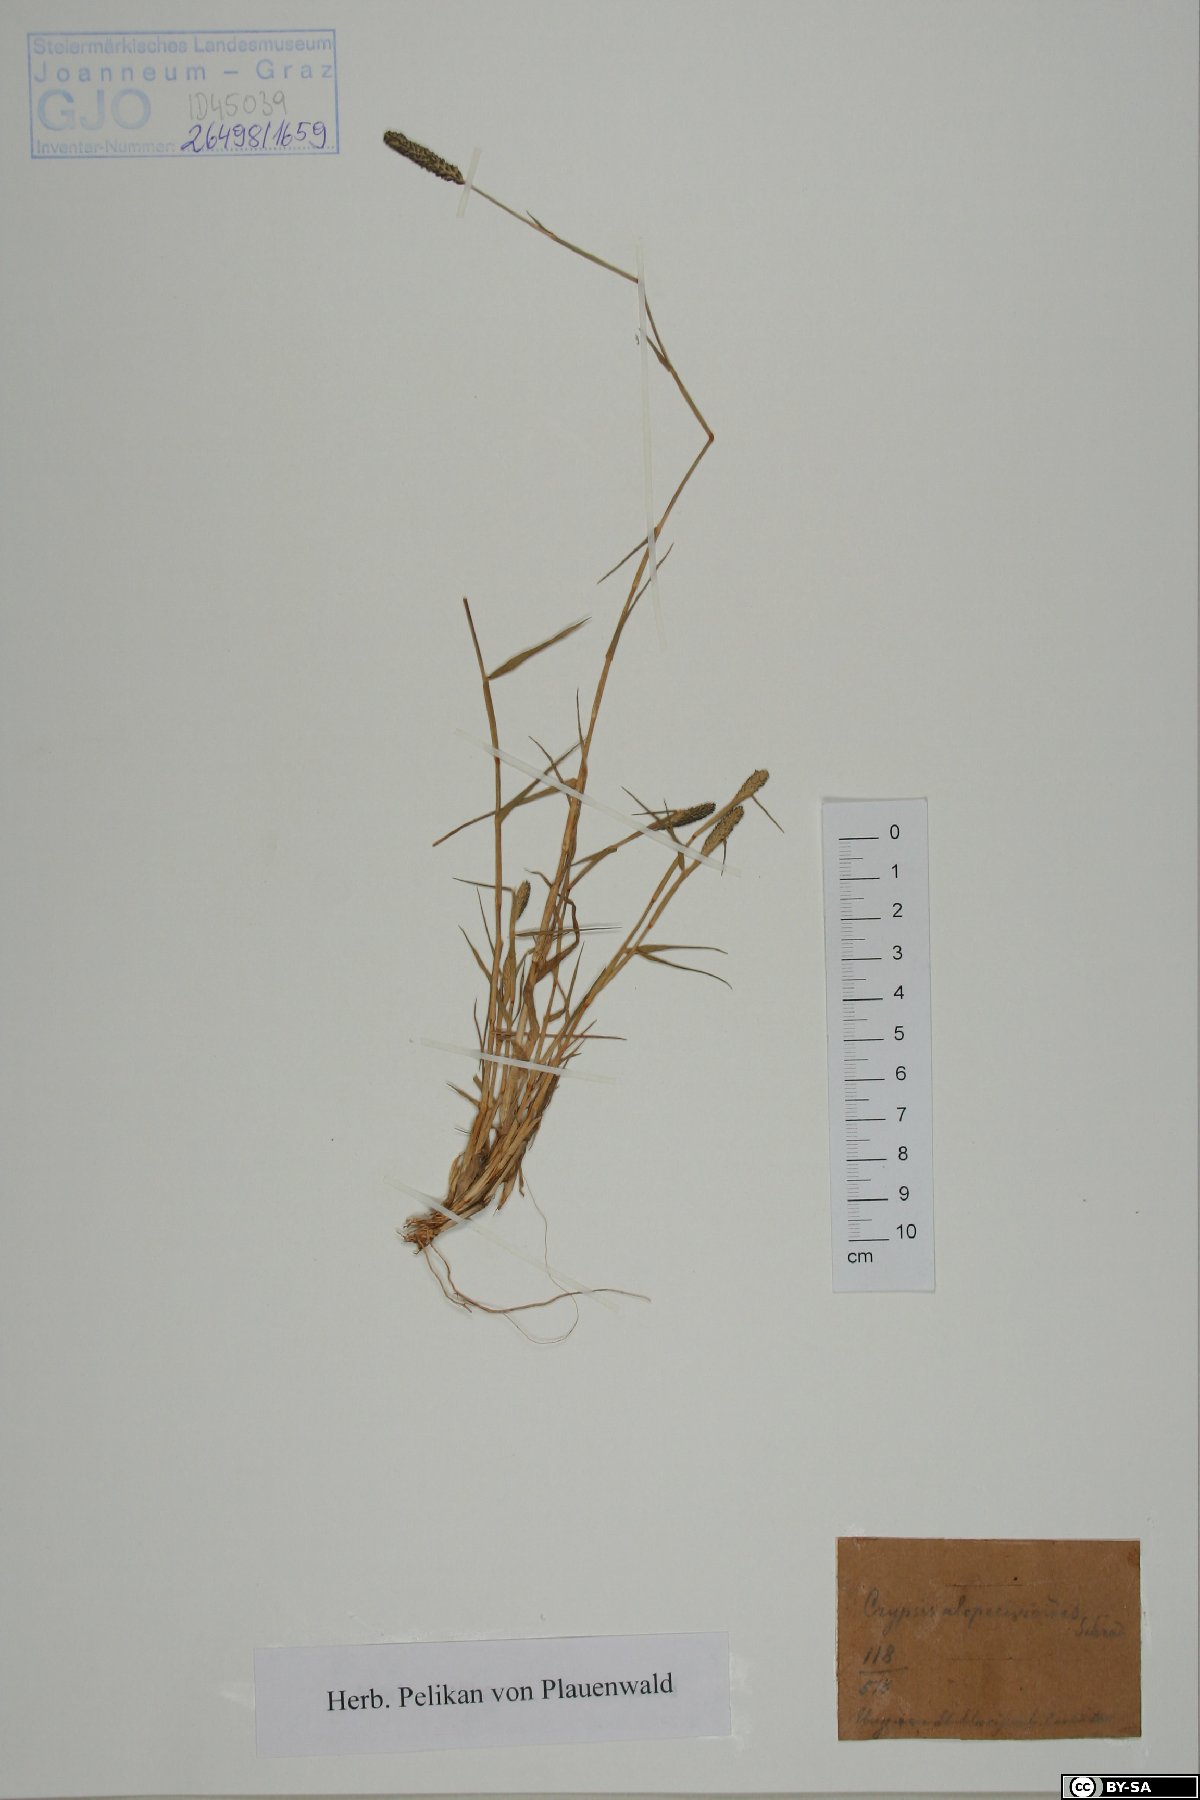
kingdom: Plantae
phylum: Tracheophyta
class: Liliopsida
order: Poales
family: Poaceae
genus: Sporobolus
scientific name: Sporobolus alopecuroides
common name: Foxtail pricklegrass
